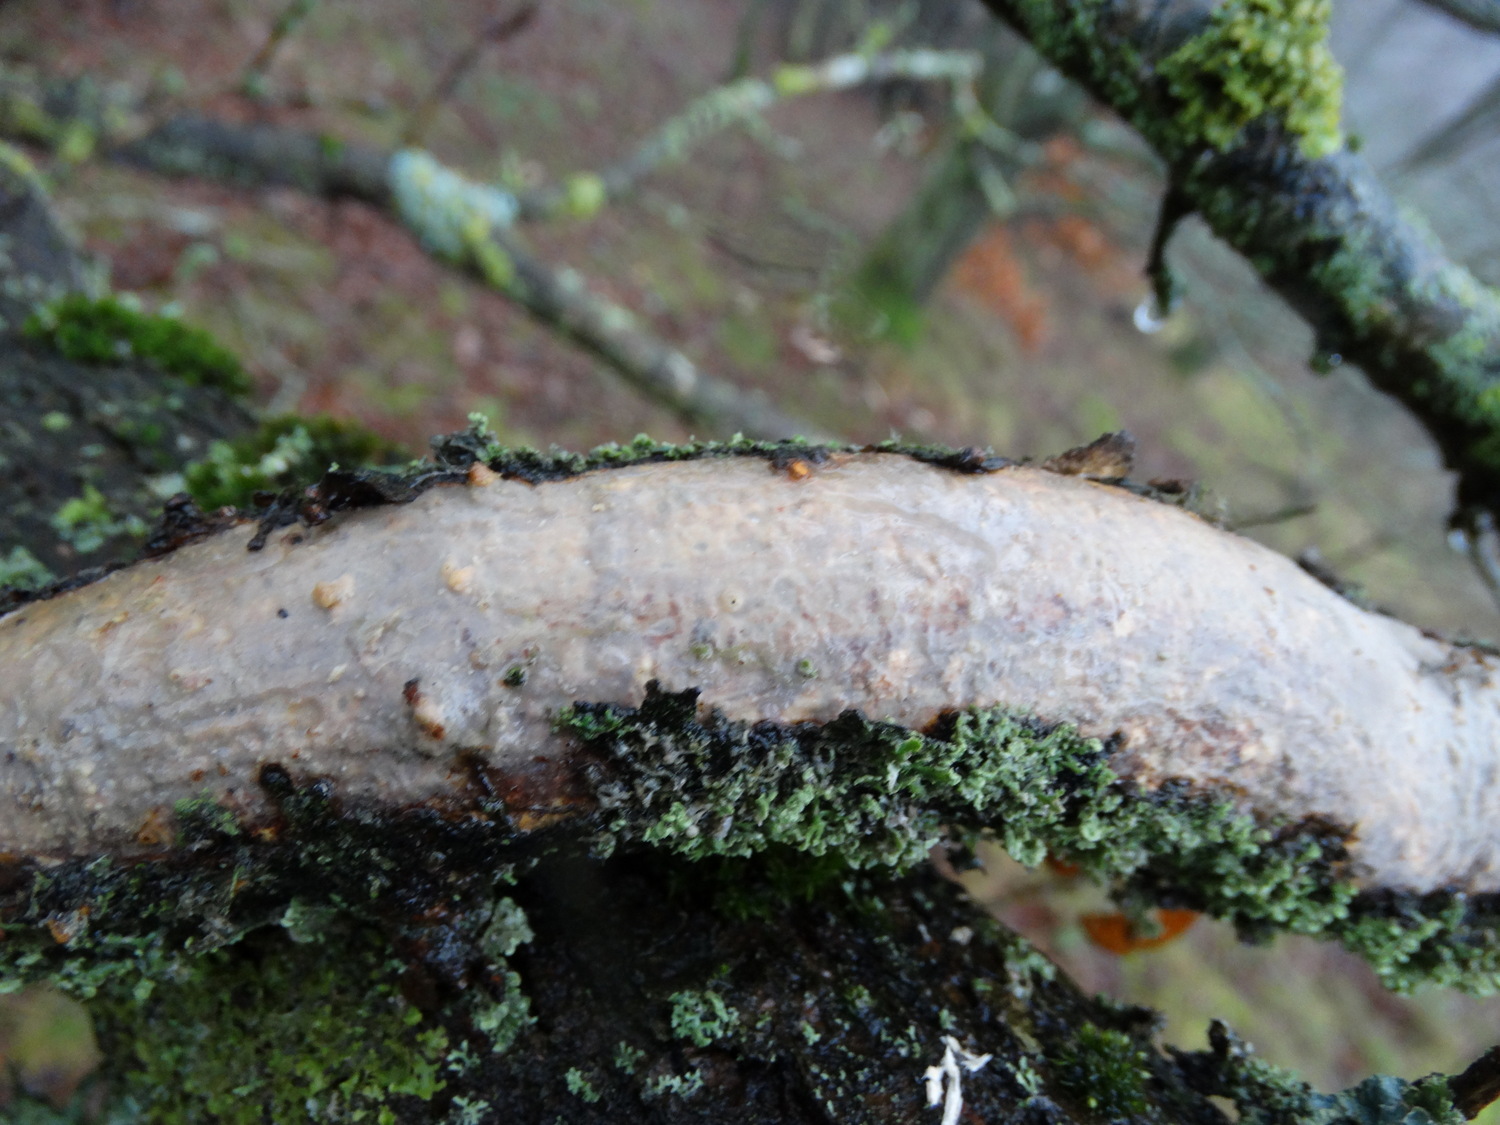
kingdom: Fungi
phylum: Basidiomycota
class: Agaricomycetes
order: Corticiales
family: Vuilleminiaceae
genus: Vuilleminia
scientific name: Vuilleminia comedens
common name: almindelig barksprænger
